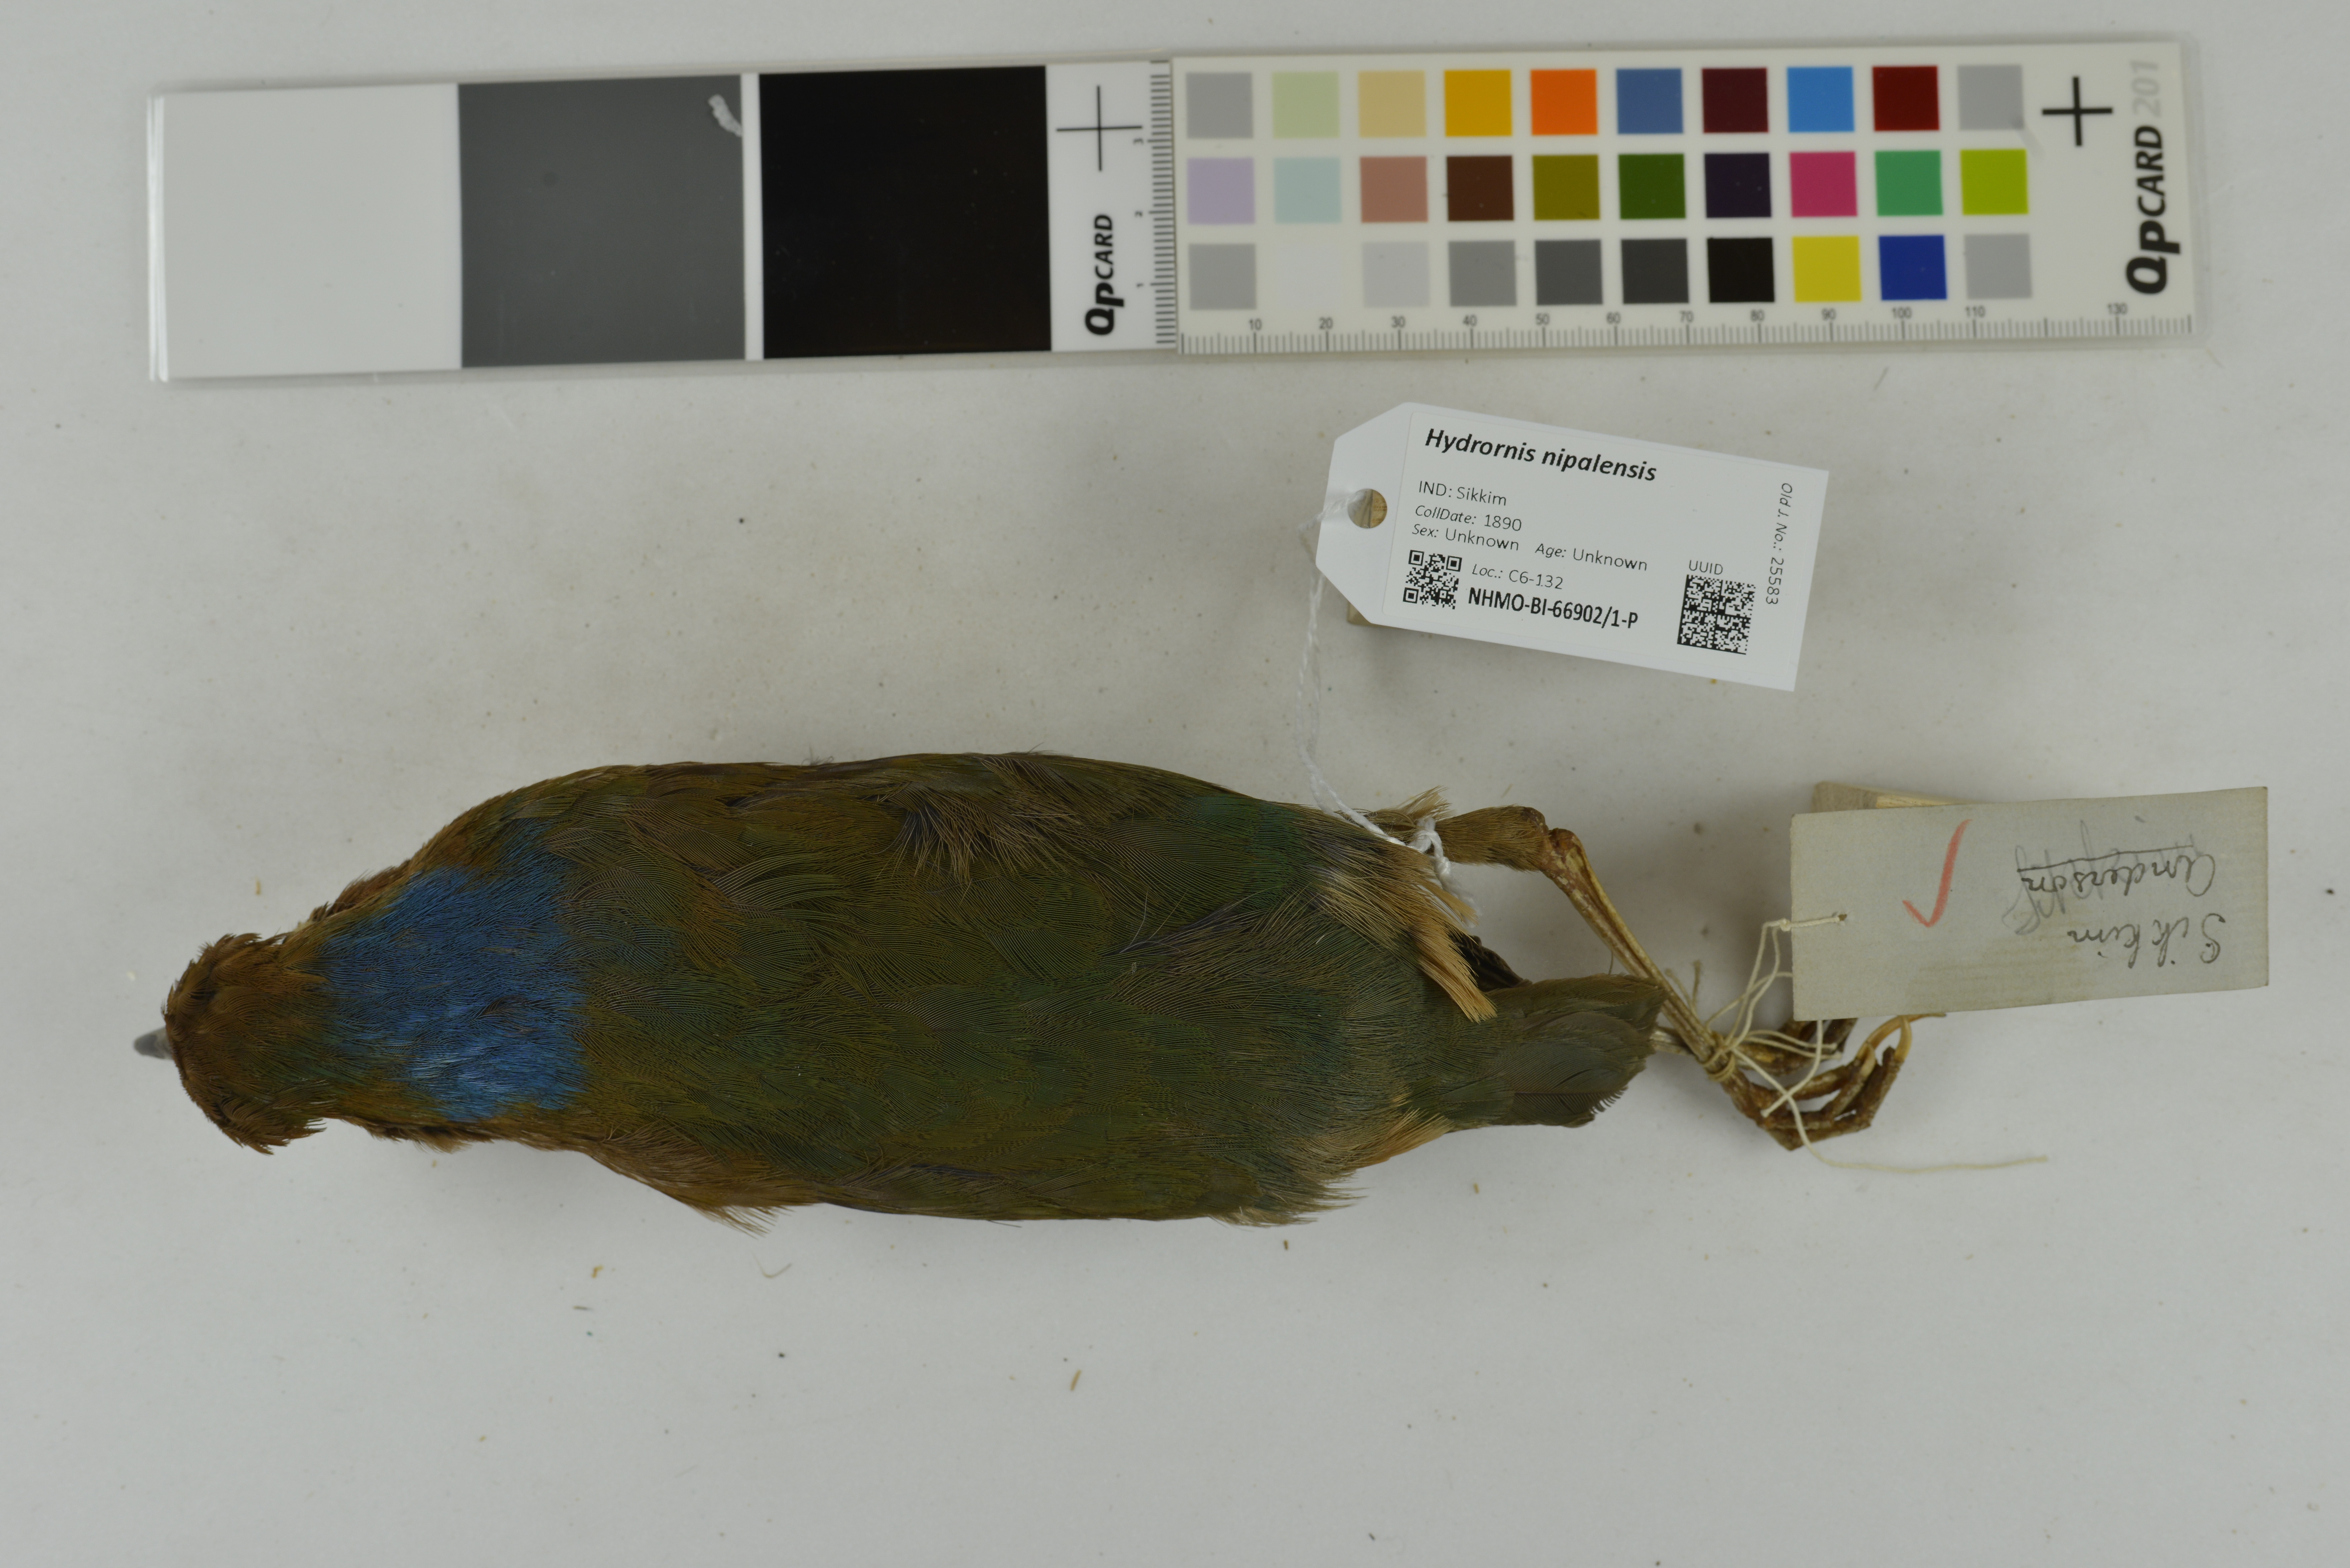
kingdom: Animalia
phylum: Chordata
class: Aves
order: Passeriformes
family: Pittidae
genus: Pitta
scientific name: Pitta nipalensis
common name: Blue-naped pitta
